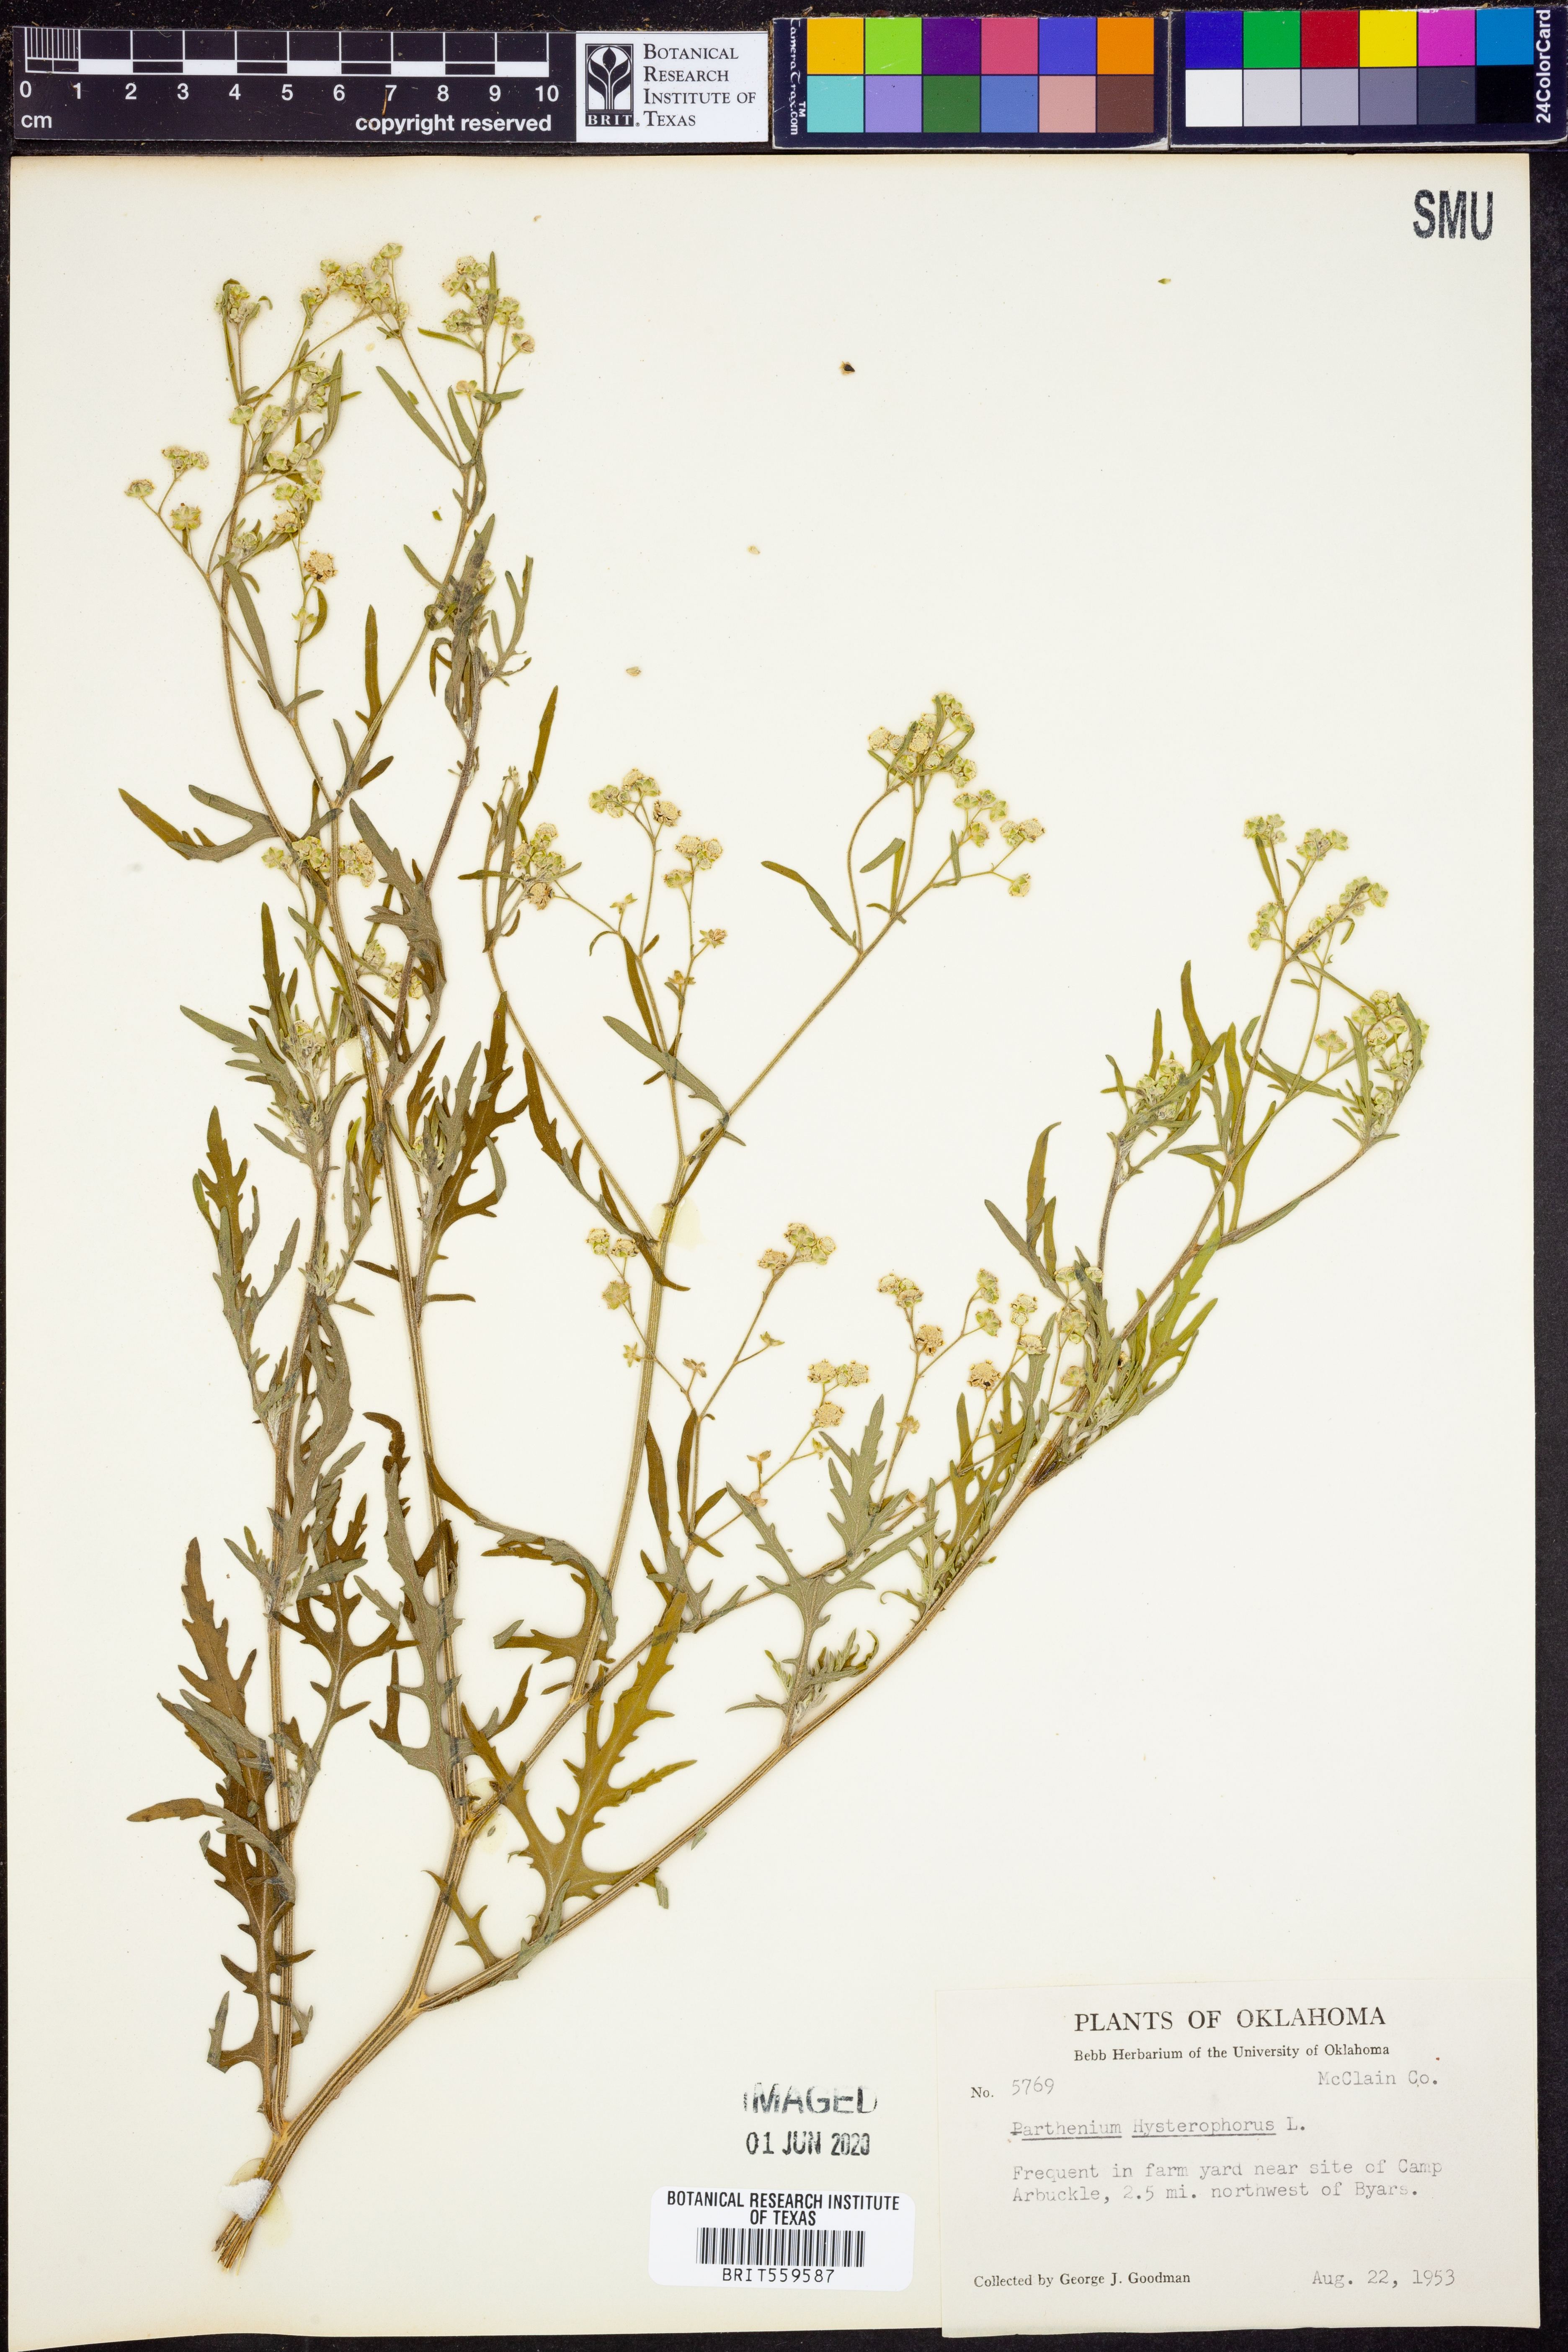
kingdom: Plantae
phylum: Tracheophyta
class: Magnoliopsida
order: Asterales
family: Asteraceae
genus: Parthenium
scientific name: Parthenium hysterophorus
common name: Santa maria feverfew
